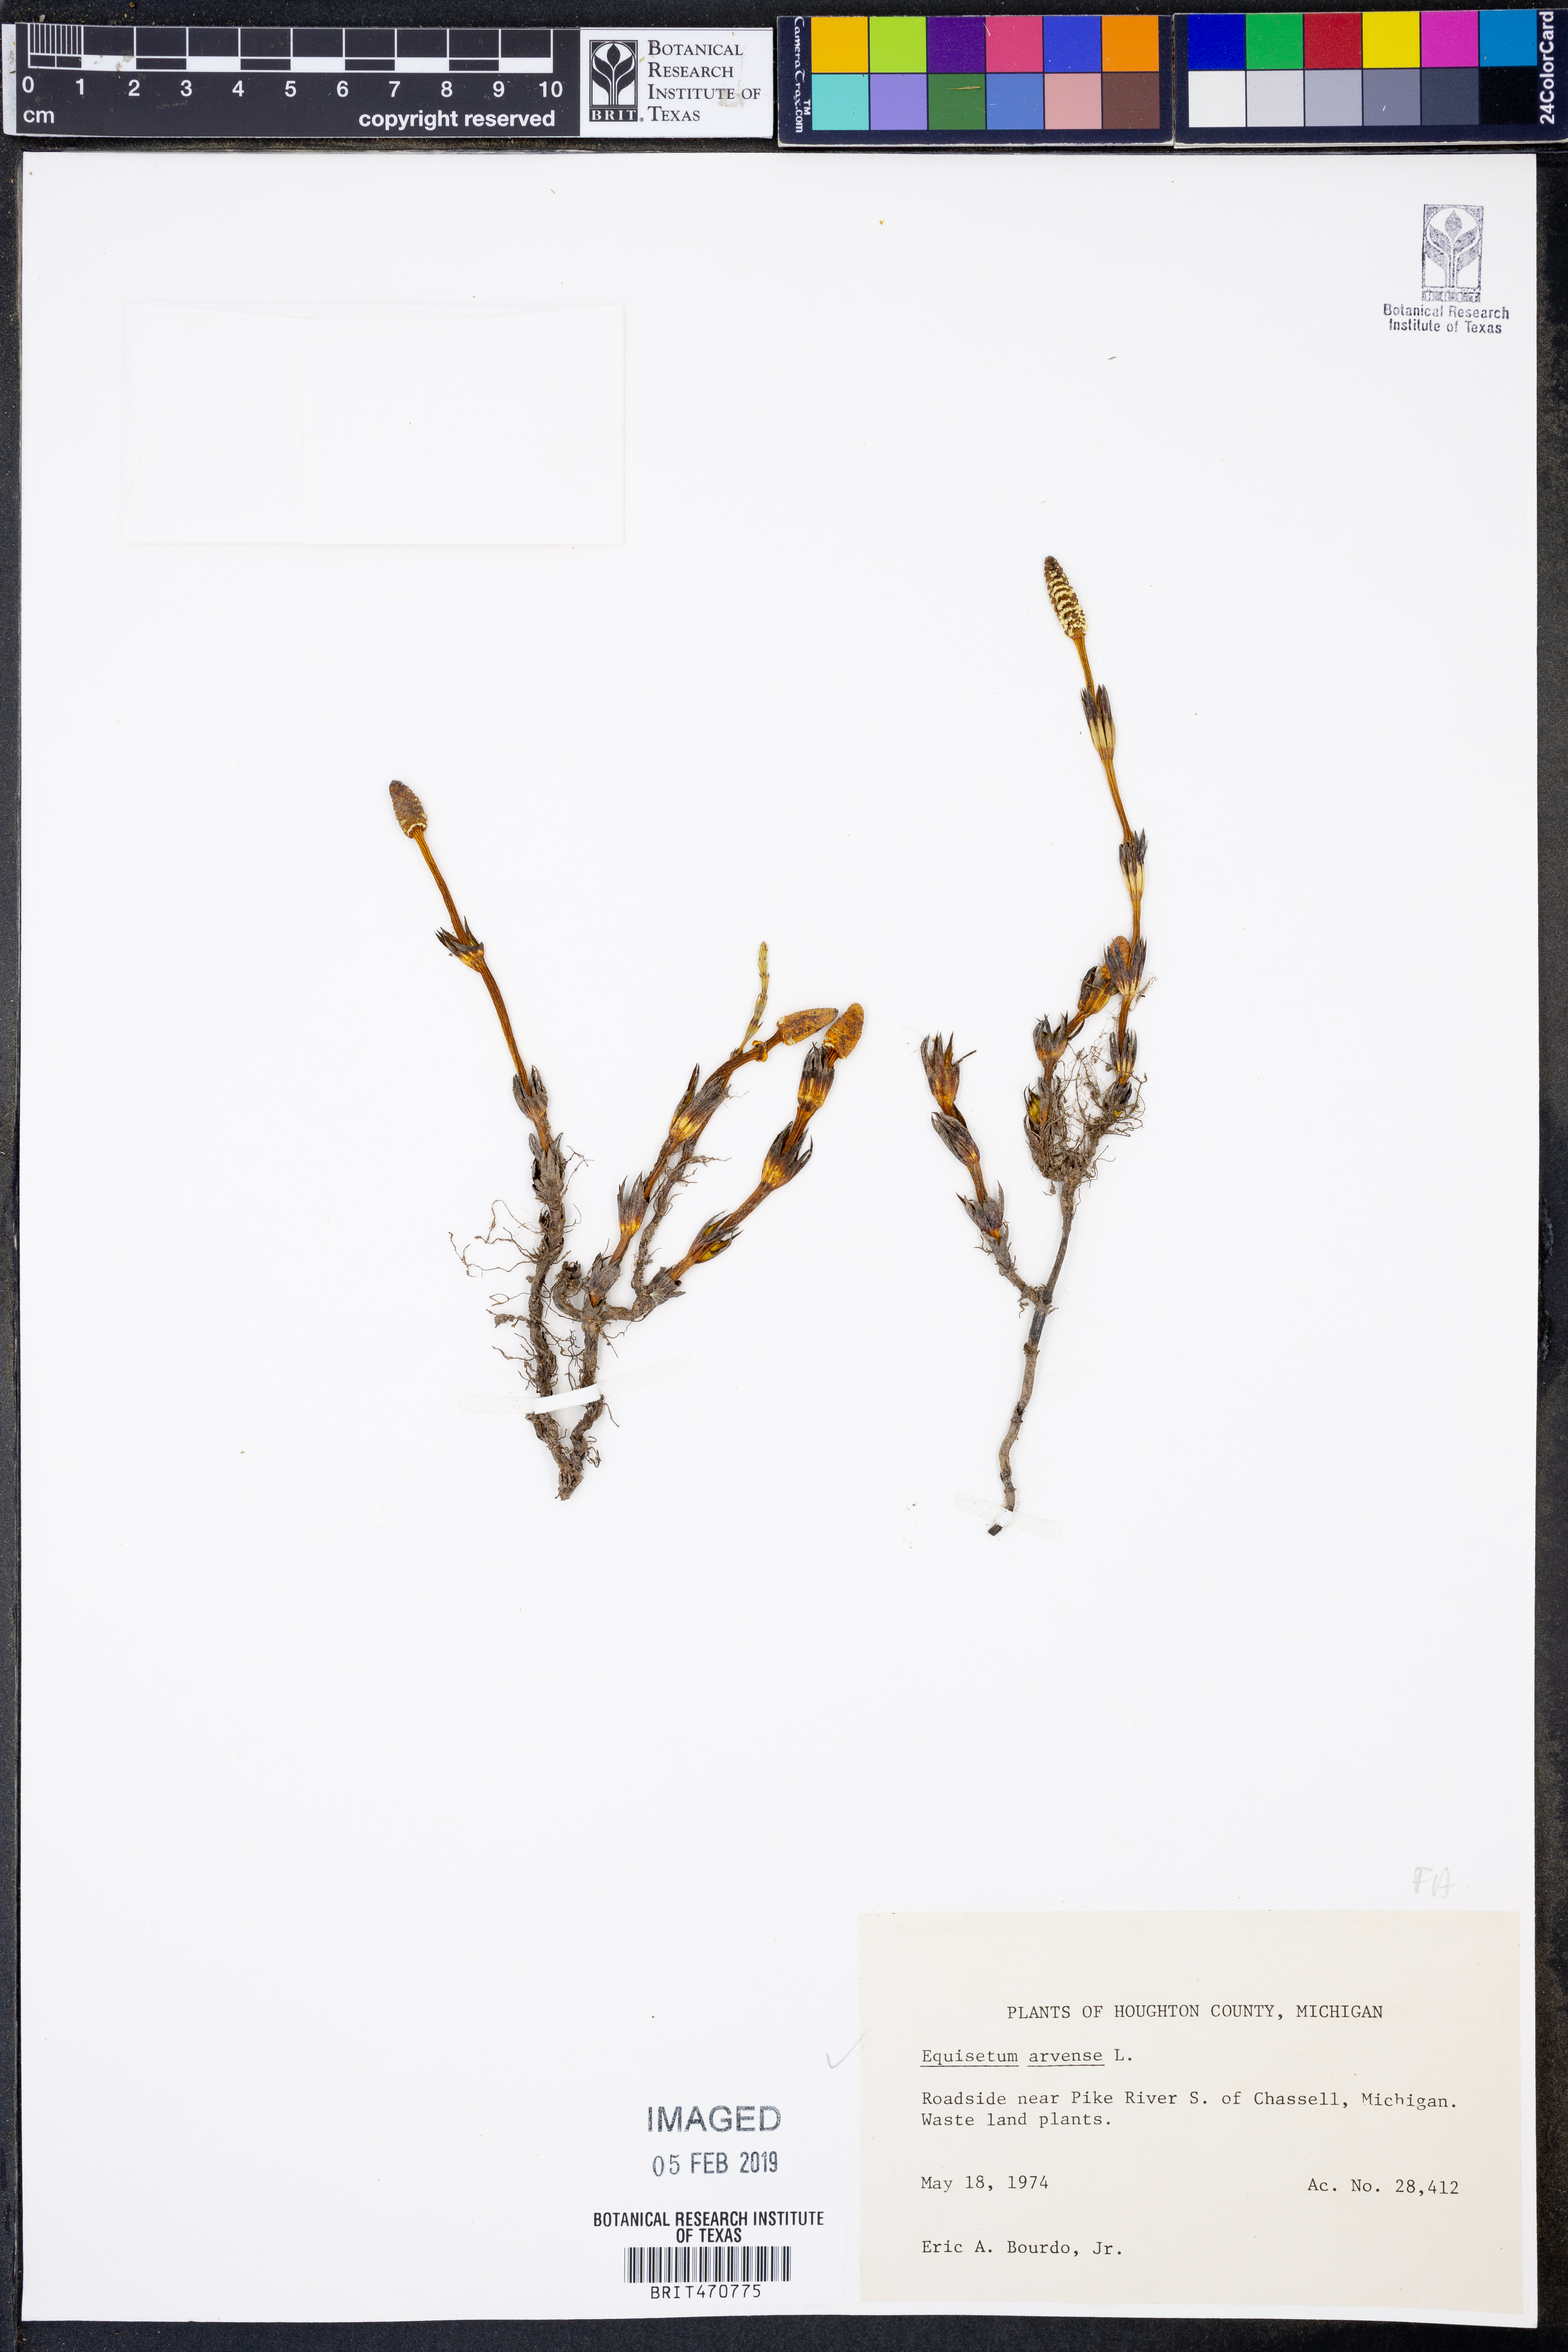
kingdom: Plantae
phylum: Tracheophyta
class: Polypodiopsida
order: Equisetales
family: Equisetaceae
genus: Equisetum
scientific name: Equisetum arvense
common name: Field horsetail
